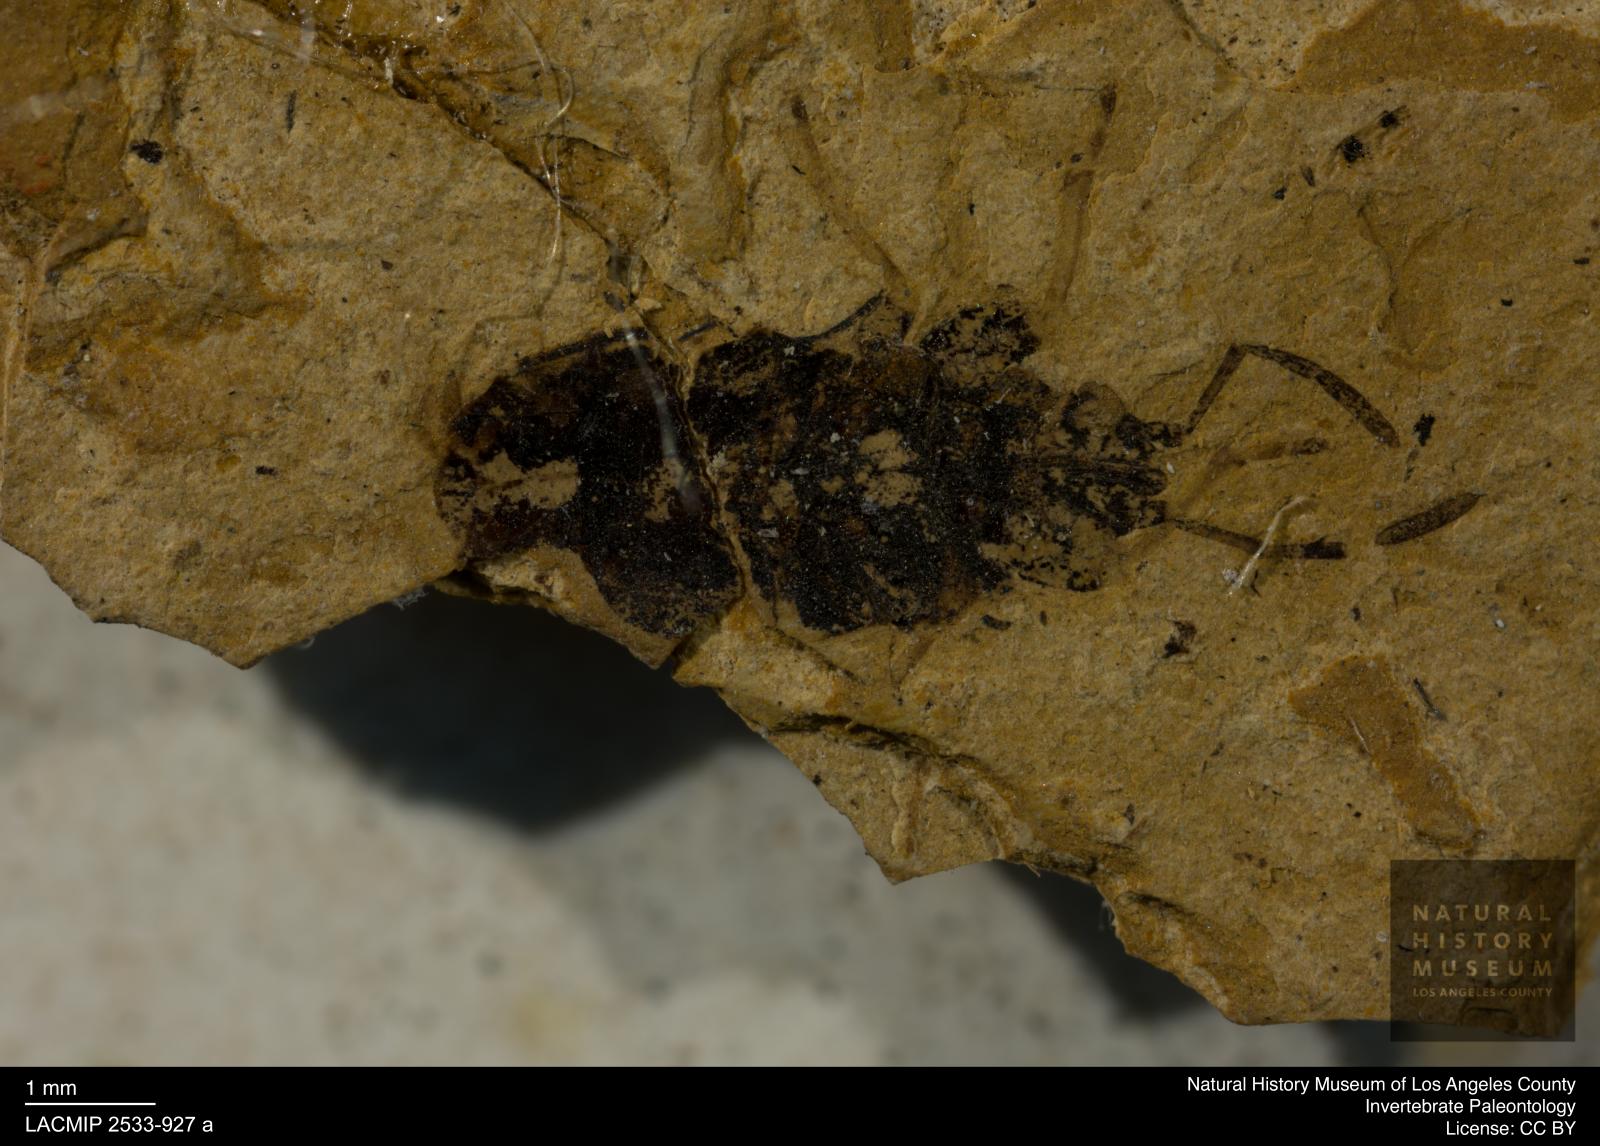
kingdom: Animalia
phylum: Arthropoda
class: Insecta
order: Hemiptera
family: Rhyparochromidae
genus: Raglius
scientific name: Raglius austerus
